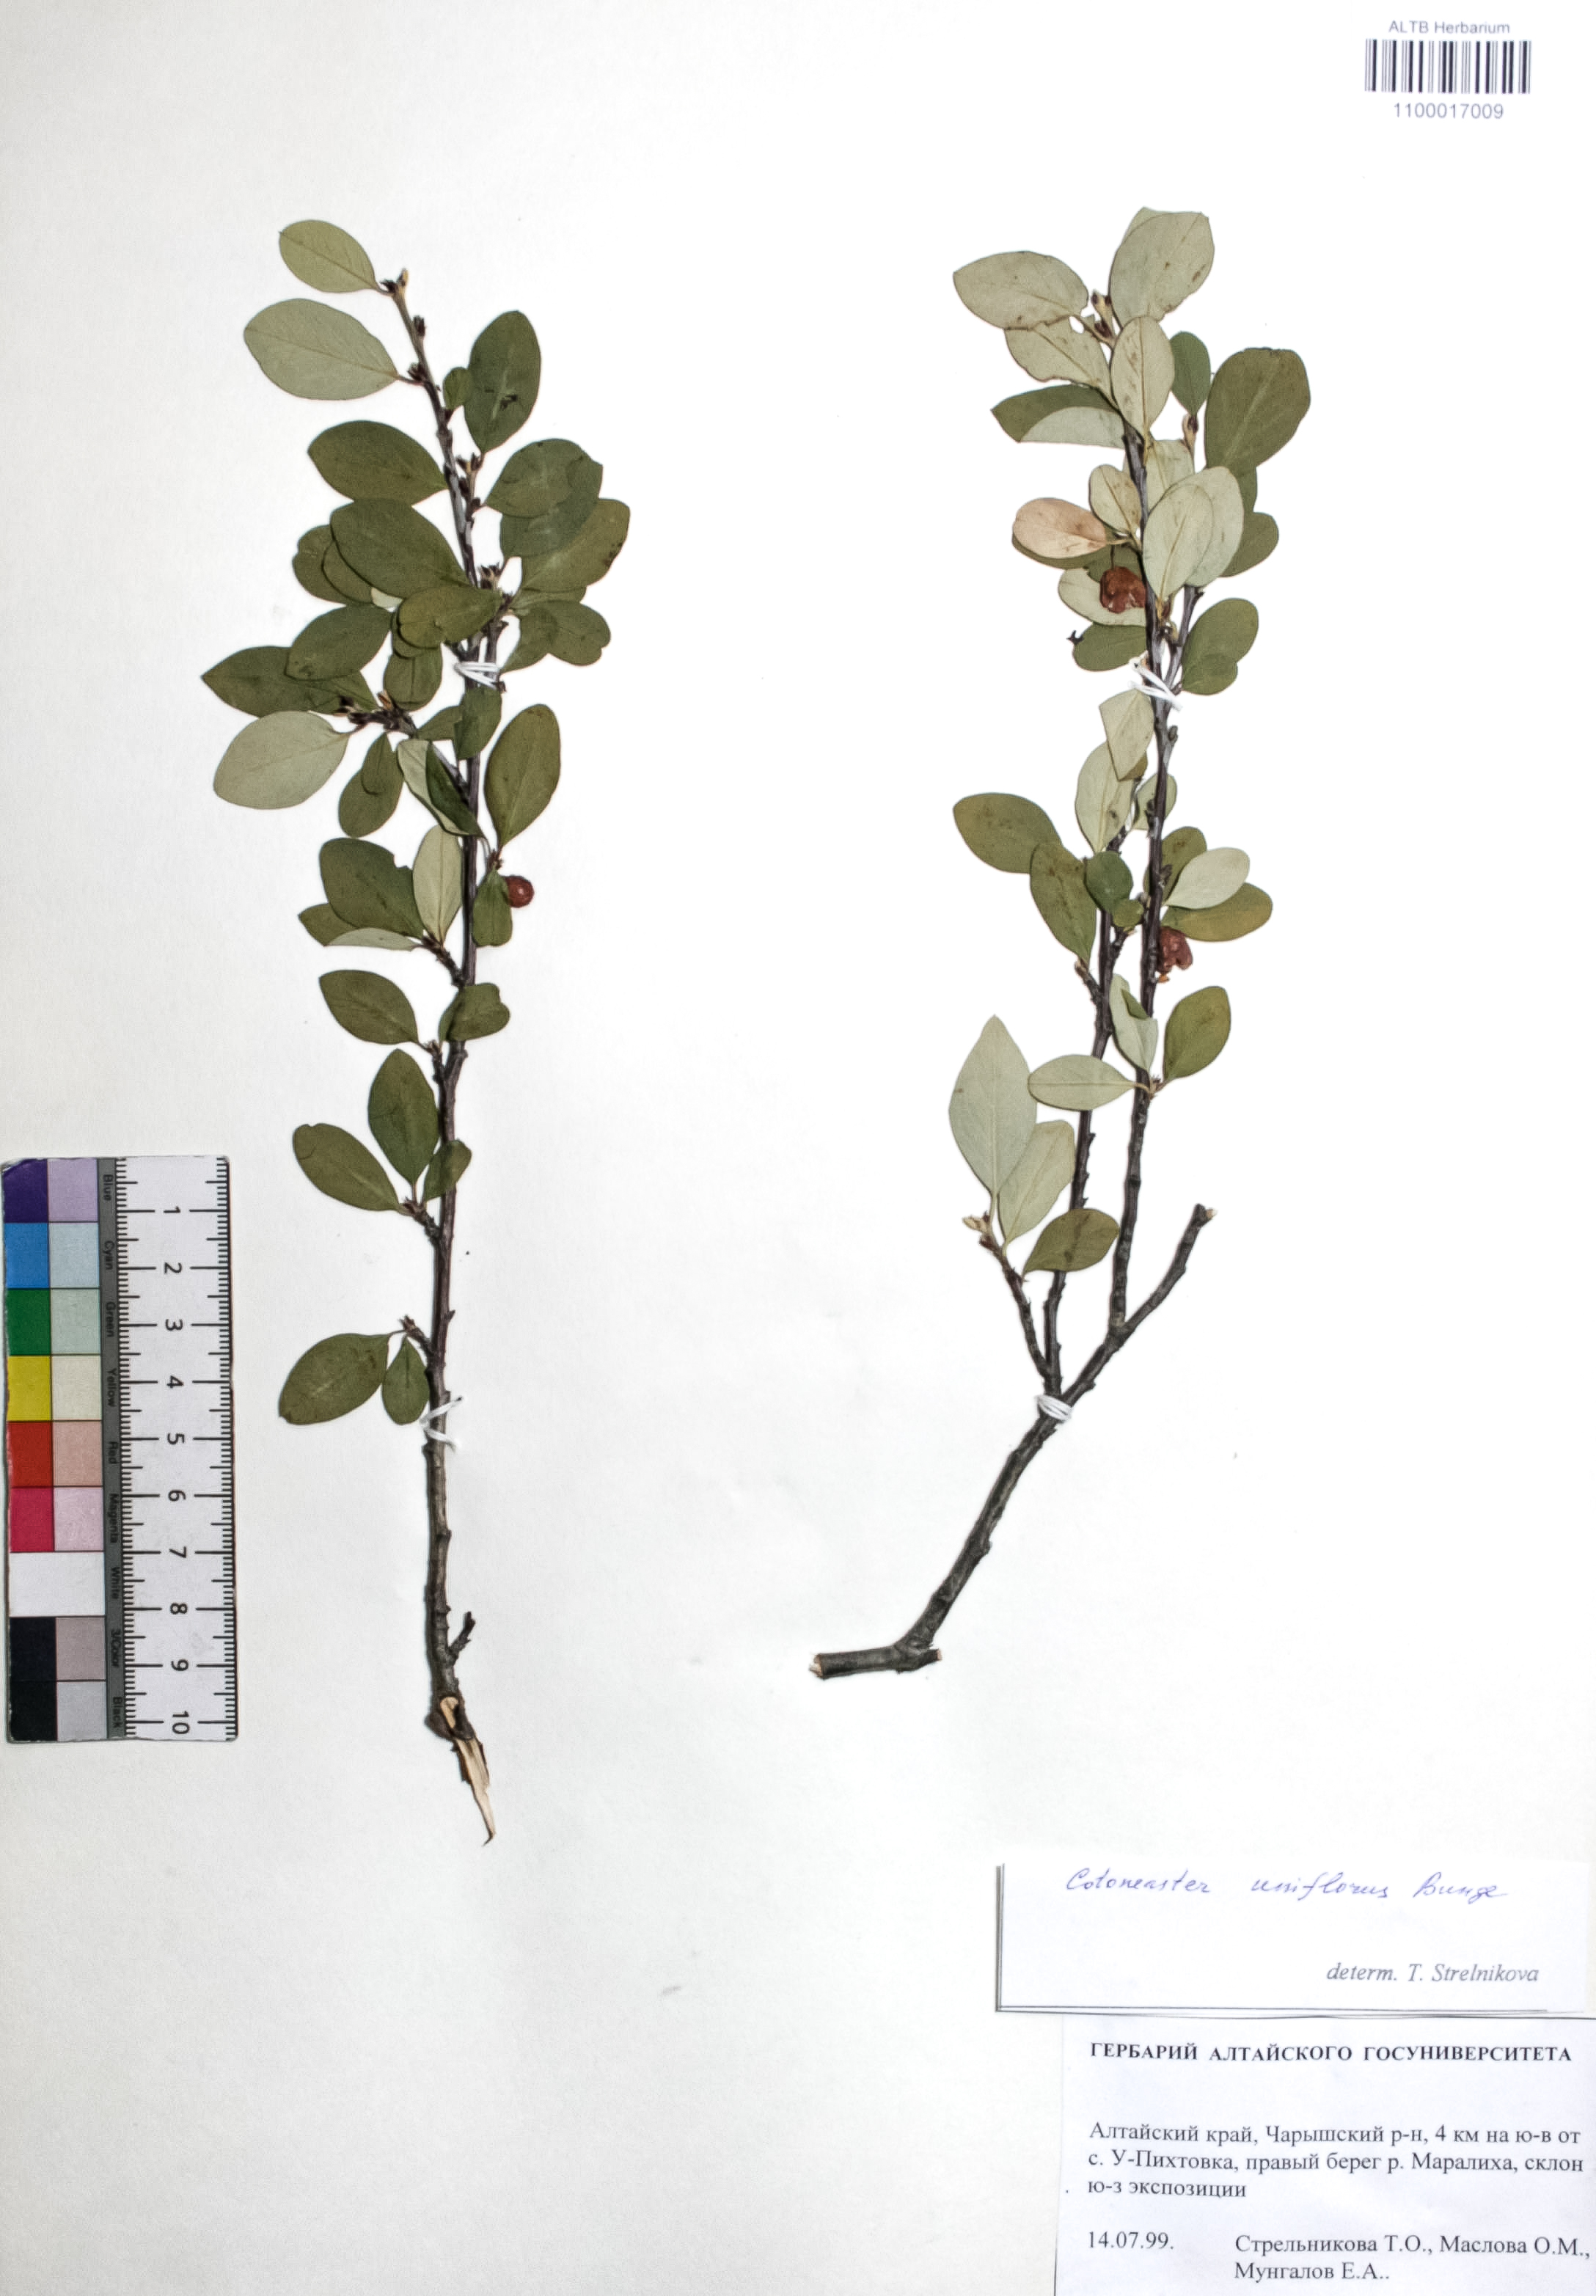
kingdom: Plantae
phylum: Tracheophyta
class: Magnoliopsida
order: Rosales
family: Rosaceae
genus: Cotoneaster
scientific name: Cotoneaster uniflorus
